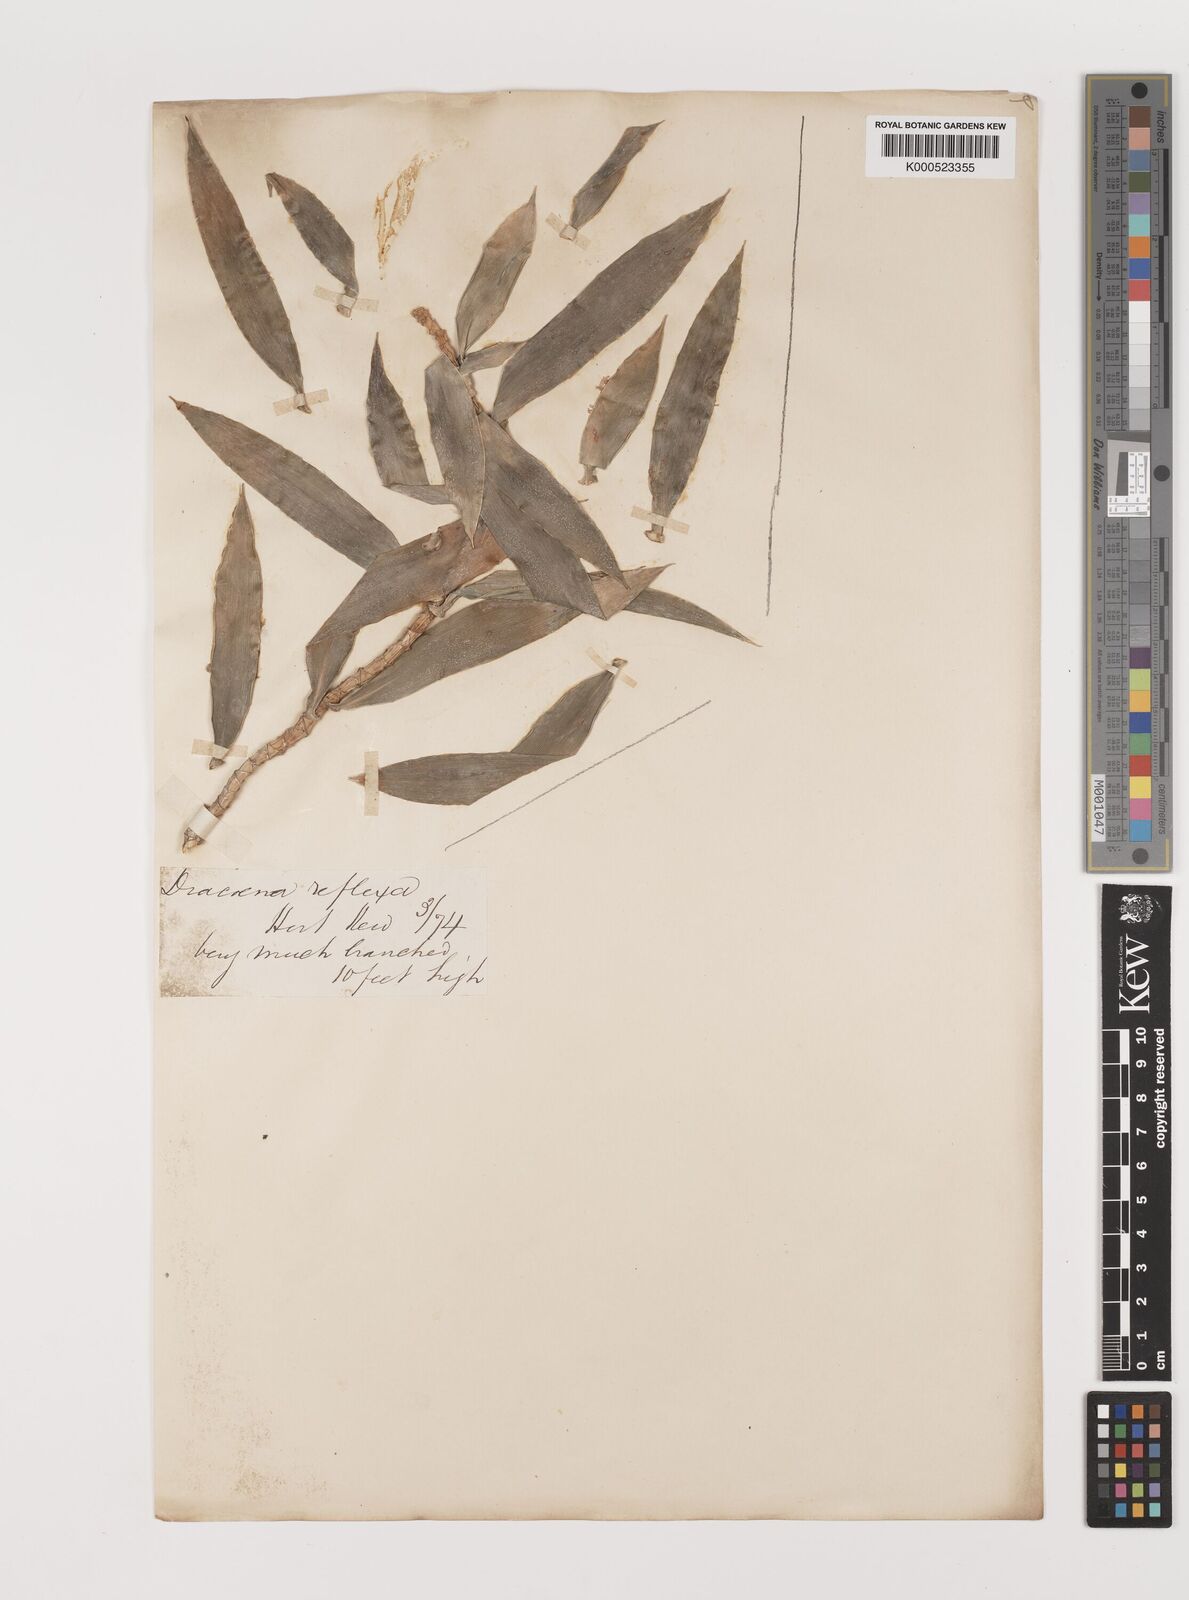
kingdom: Plantae
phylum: Tracheophyta
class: Liliopsida
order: Asparagales
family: Asparagaceae
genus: Dracaena
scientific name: Dracaena reflexa
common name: Song-of-india
